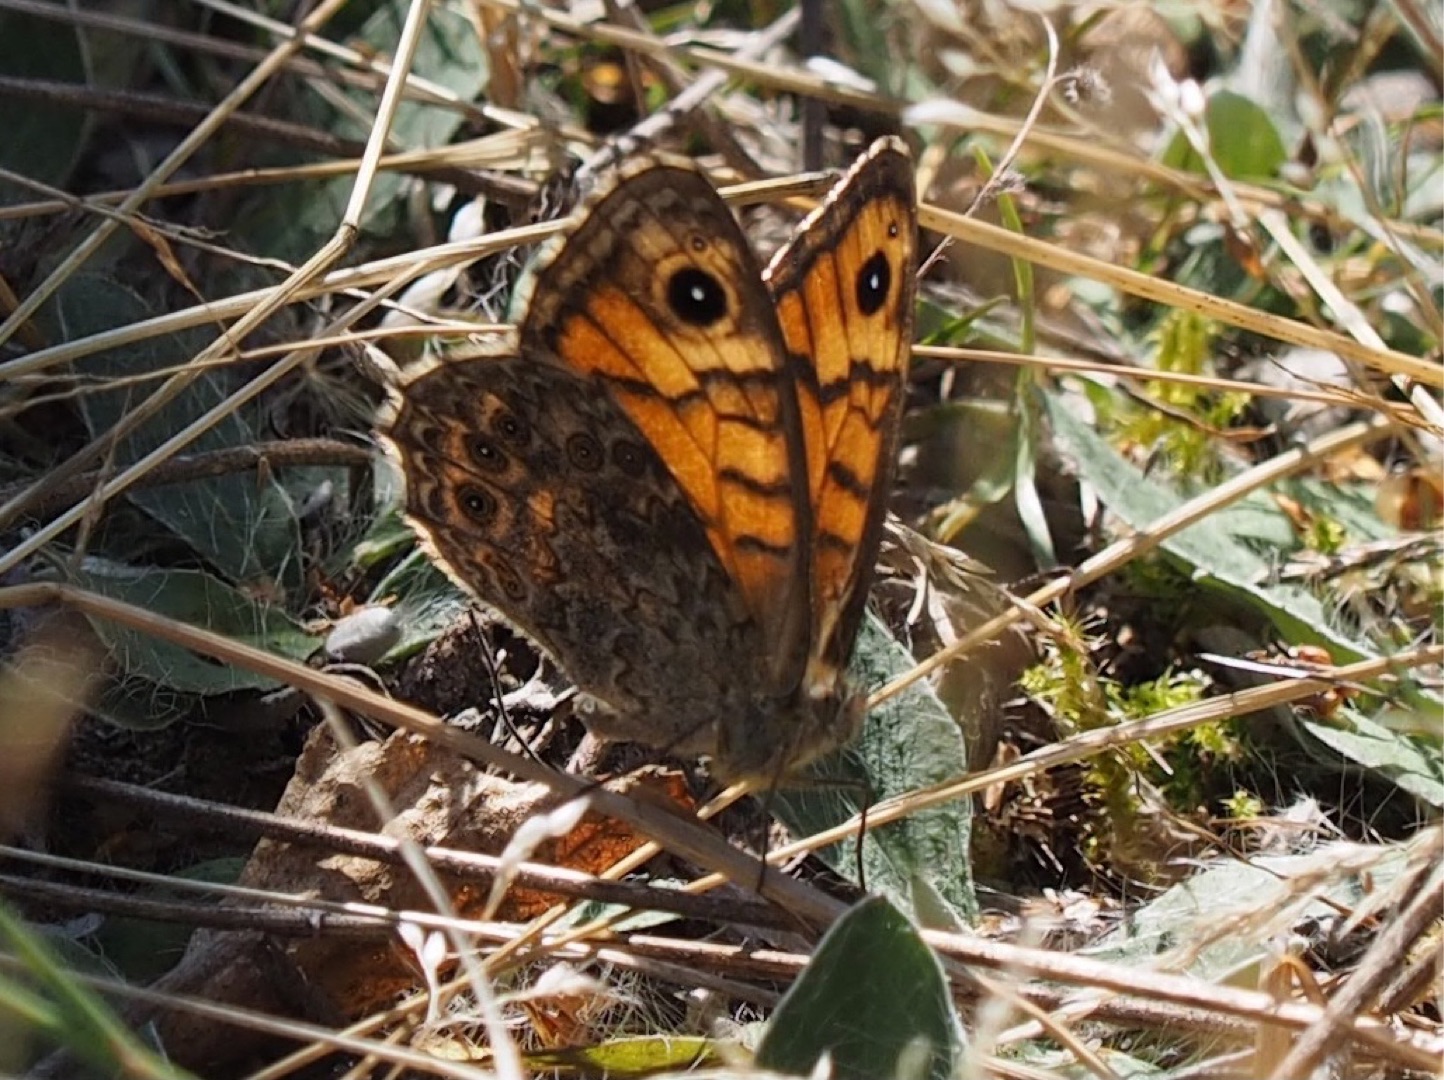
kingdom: Animalia
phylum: Arthropoda
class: Insecta
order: Lepidoptera
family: Nymphalidae
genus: Pararge
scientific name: Pararge Lasiommata megera
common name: Vejrandøje
